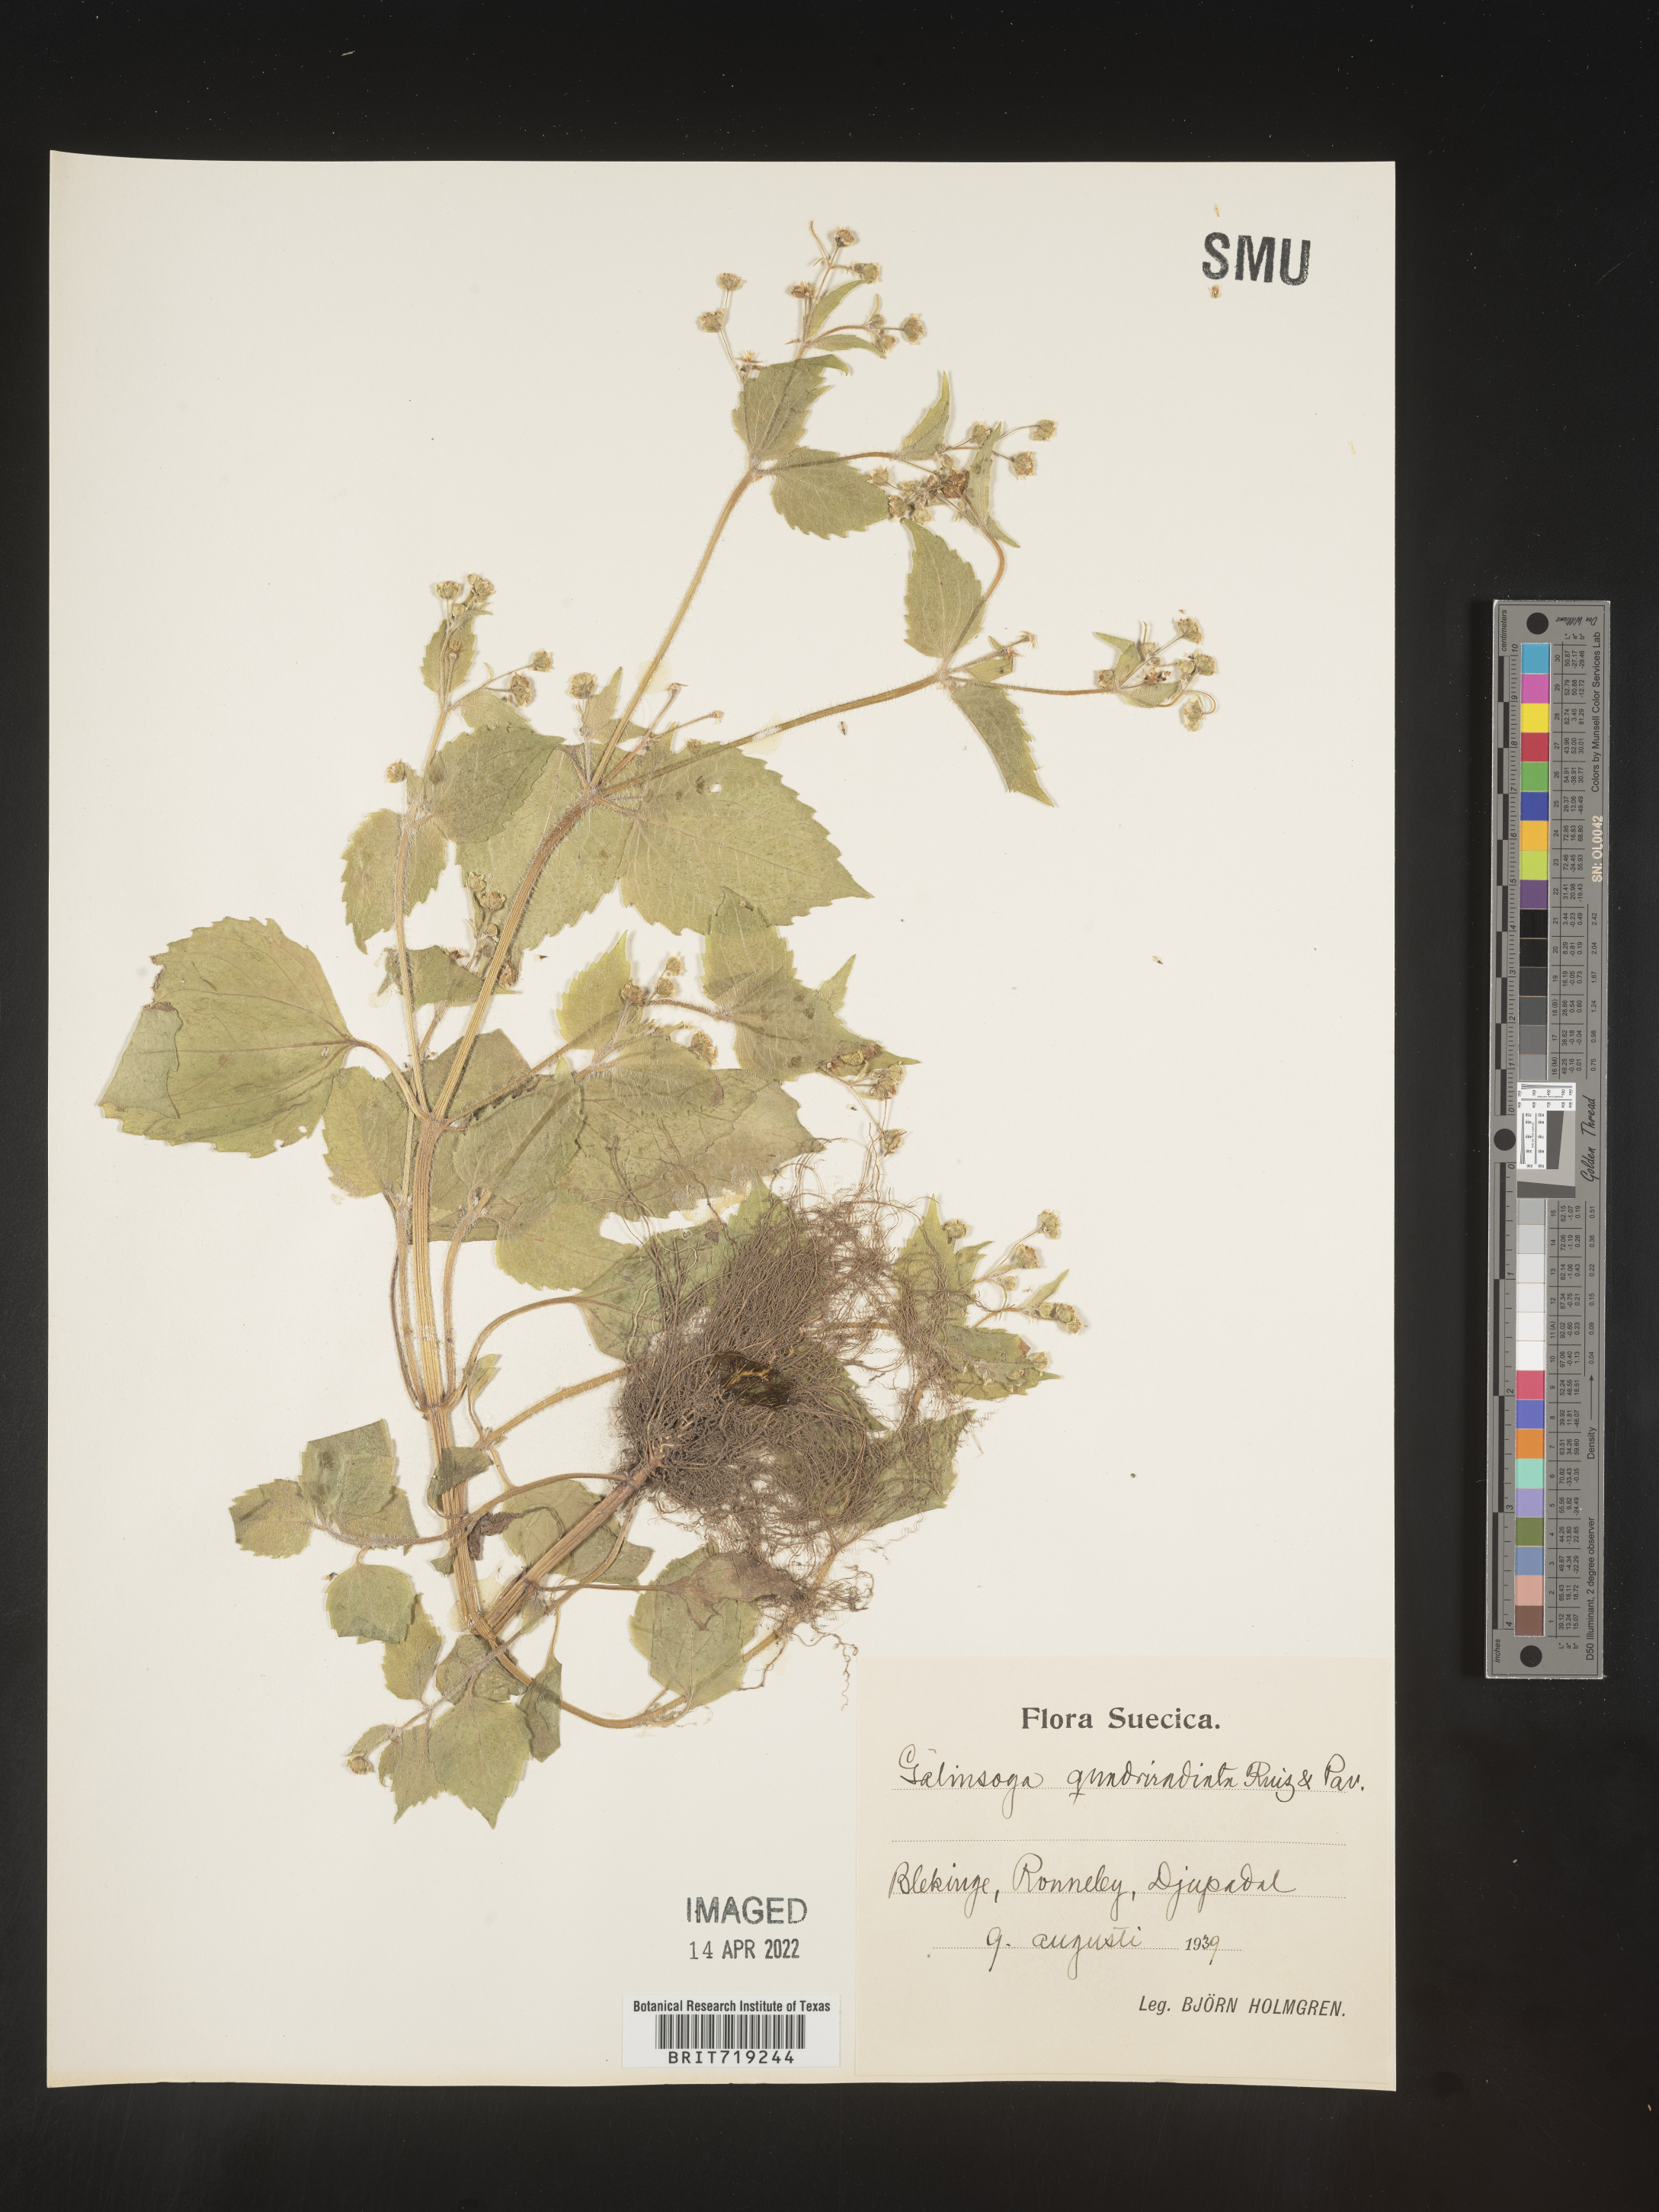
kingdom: Plantae
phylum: Tracheophyta
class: Magnoliopsida
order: Asterales
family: Asteraceae
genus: Galinsoga
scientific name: Galinsoga
